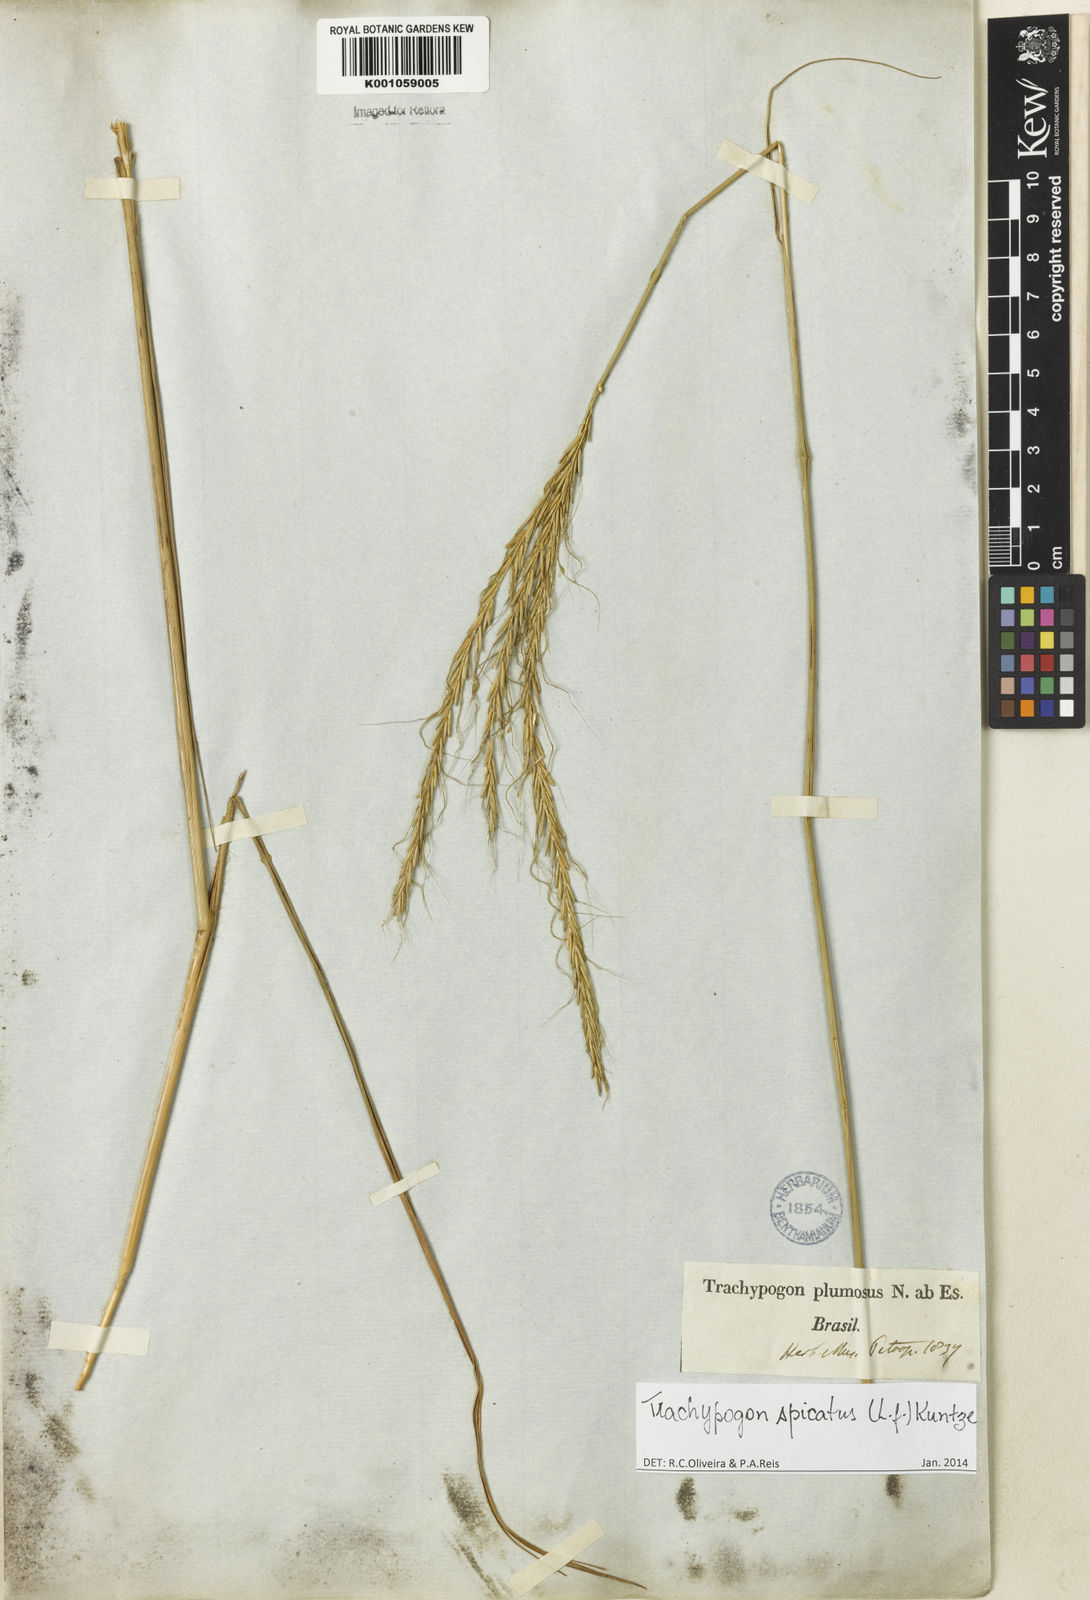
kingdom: Plantae
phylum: Tracheophyta
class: Liliopsida
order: Poales
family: Poaceae
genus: Trachypogon
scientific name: Trachypogon spicatus
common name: Crinkle-awn
